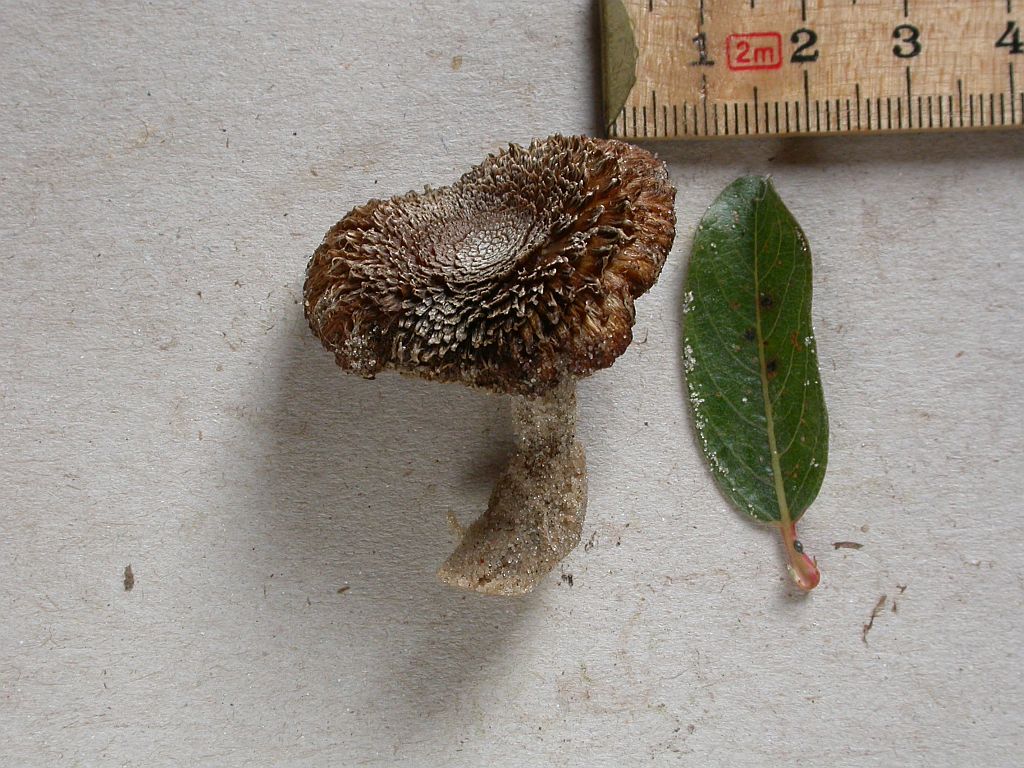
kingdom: Fungi
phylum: Basidiomycota
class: Agaricomycetes
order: Agaricales
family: Inocybaceae
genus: Inocybe
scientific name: Inocybe impexa
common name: hygrofan trævlhat
